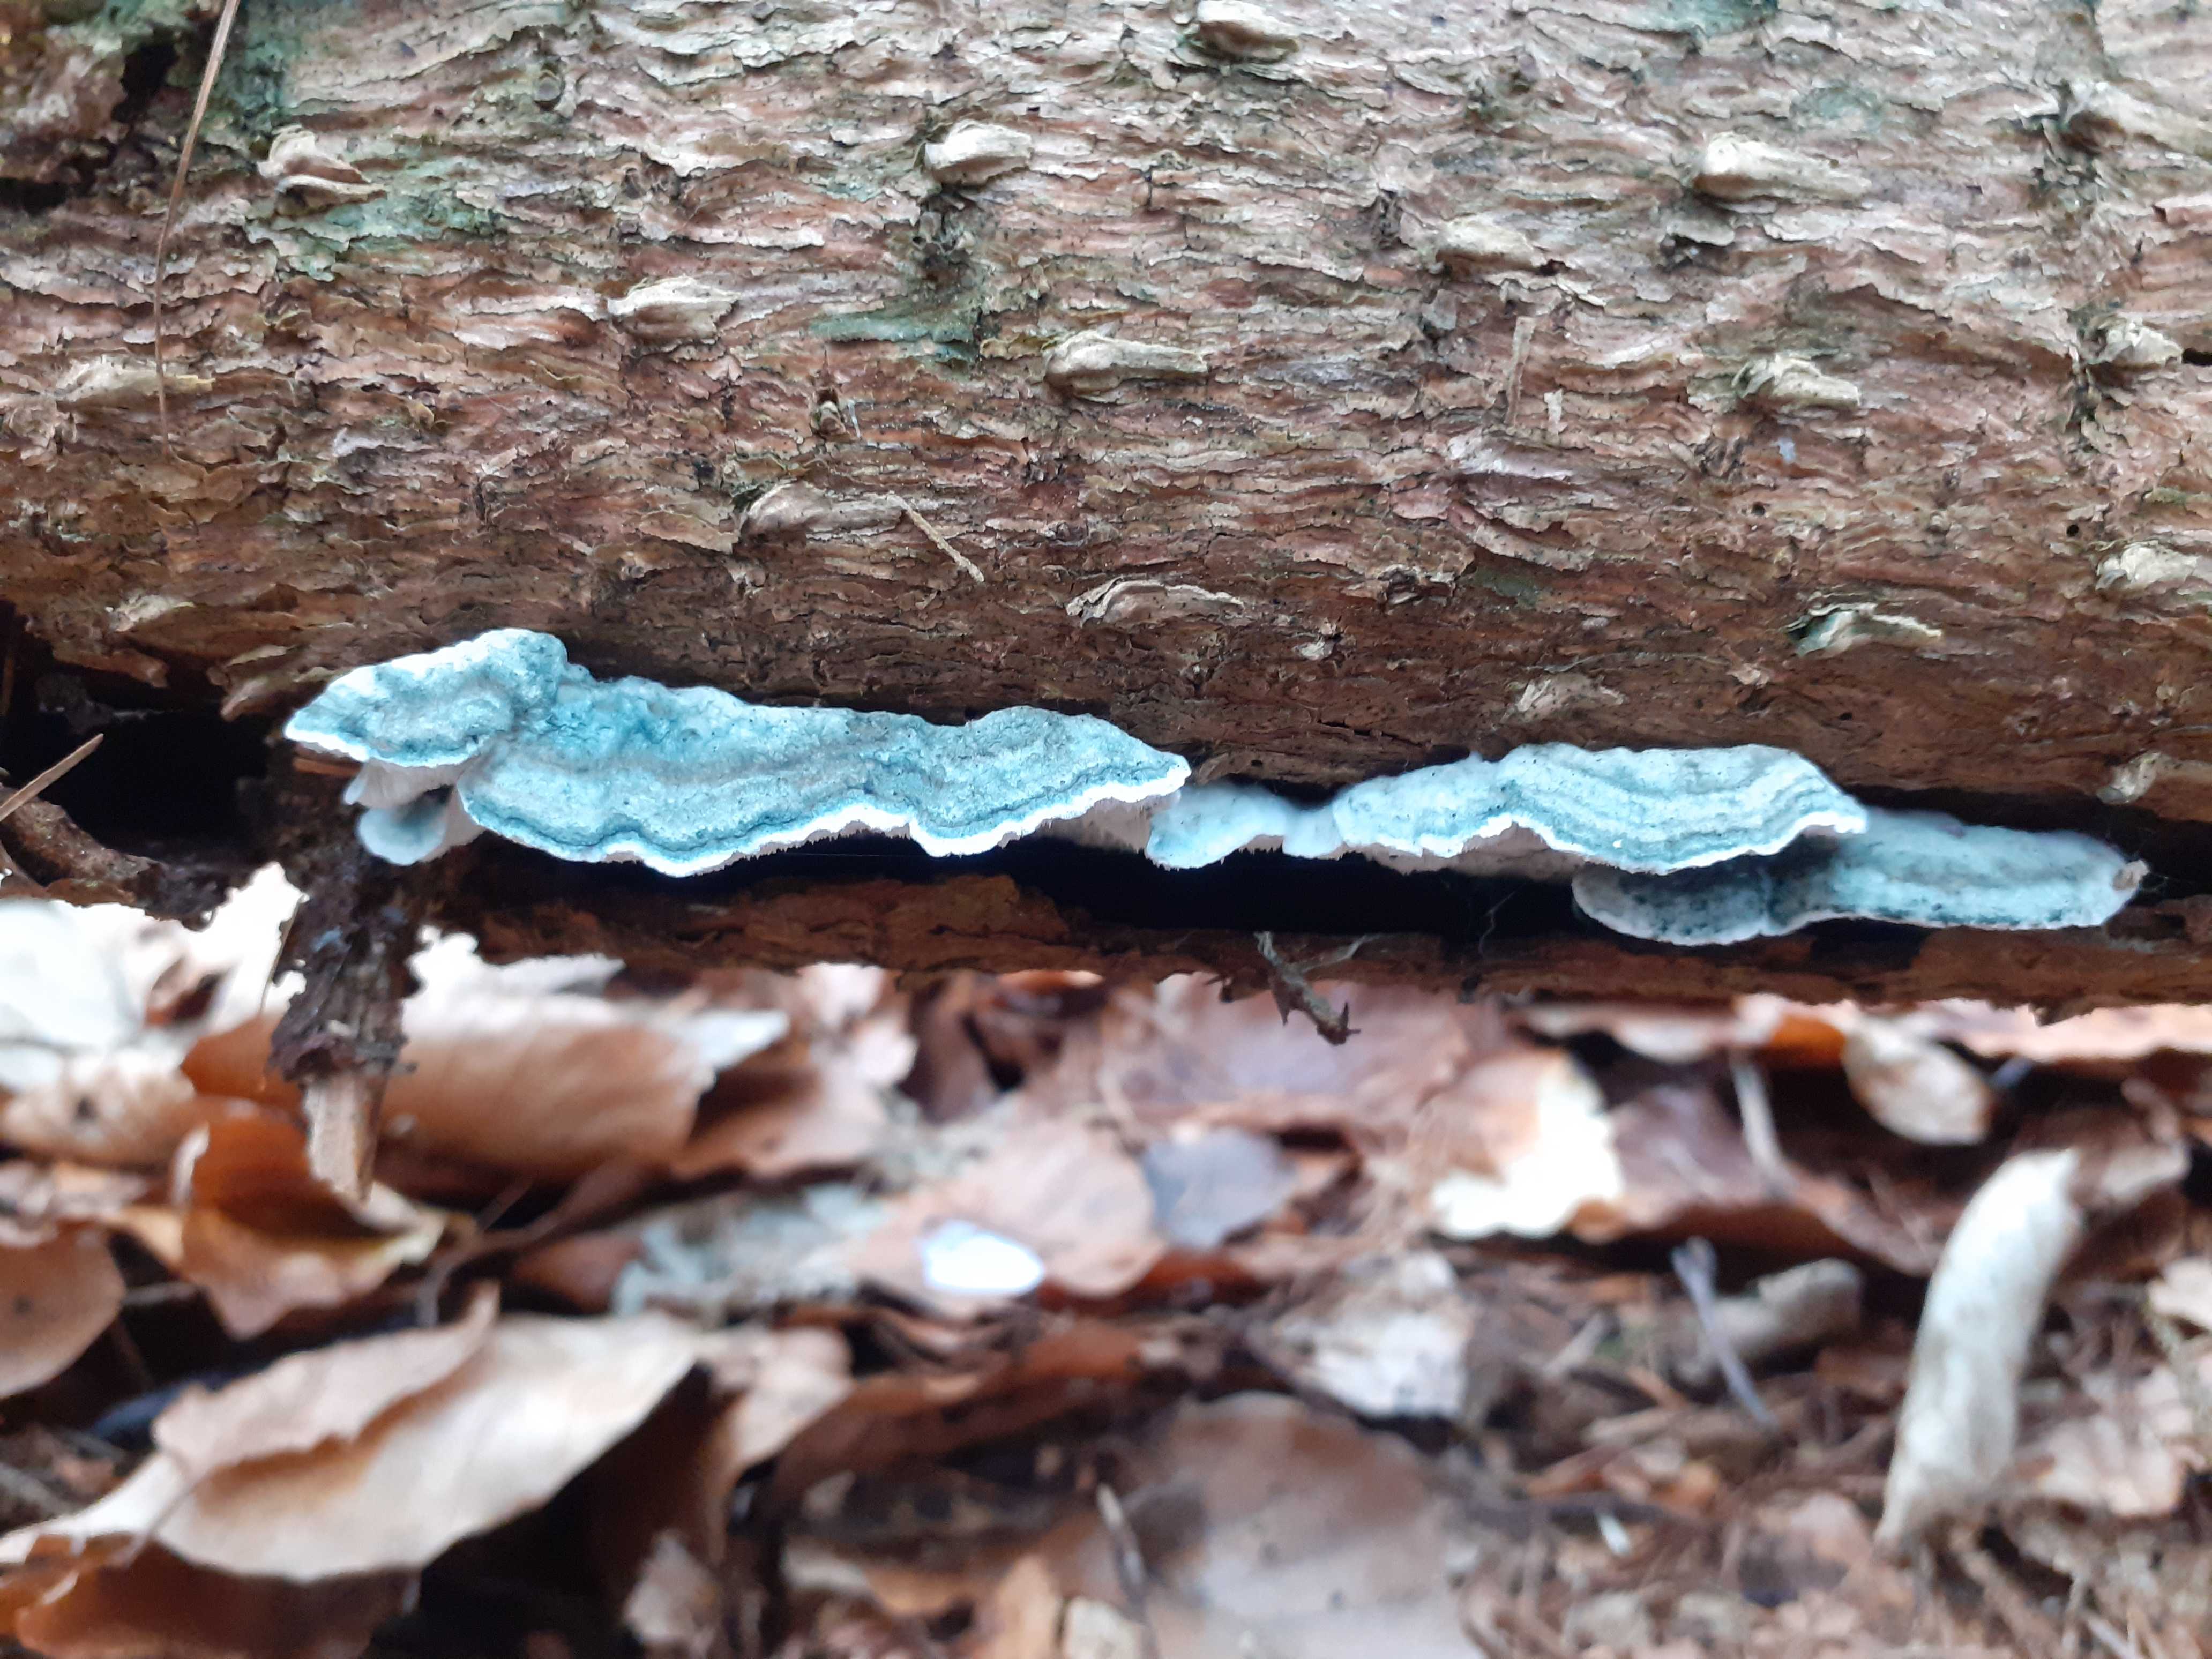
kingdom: Fungi
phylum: Basidiomycota
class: Agaricomycetes
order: Polyporales
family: Polyporaceae
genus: Cyanosporus
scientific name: Cyanosporus caesius
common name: blålig kødporesvamp
